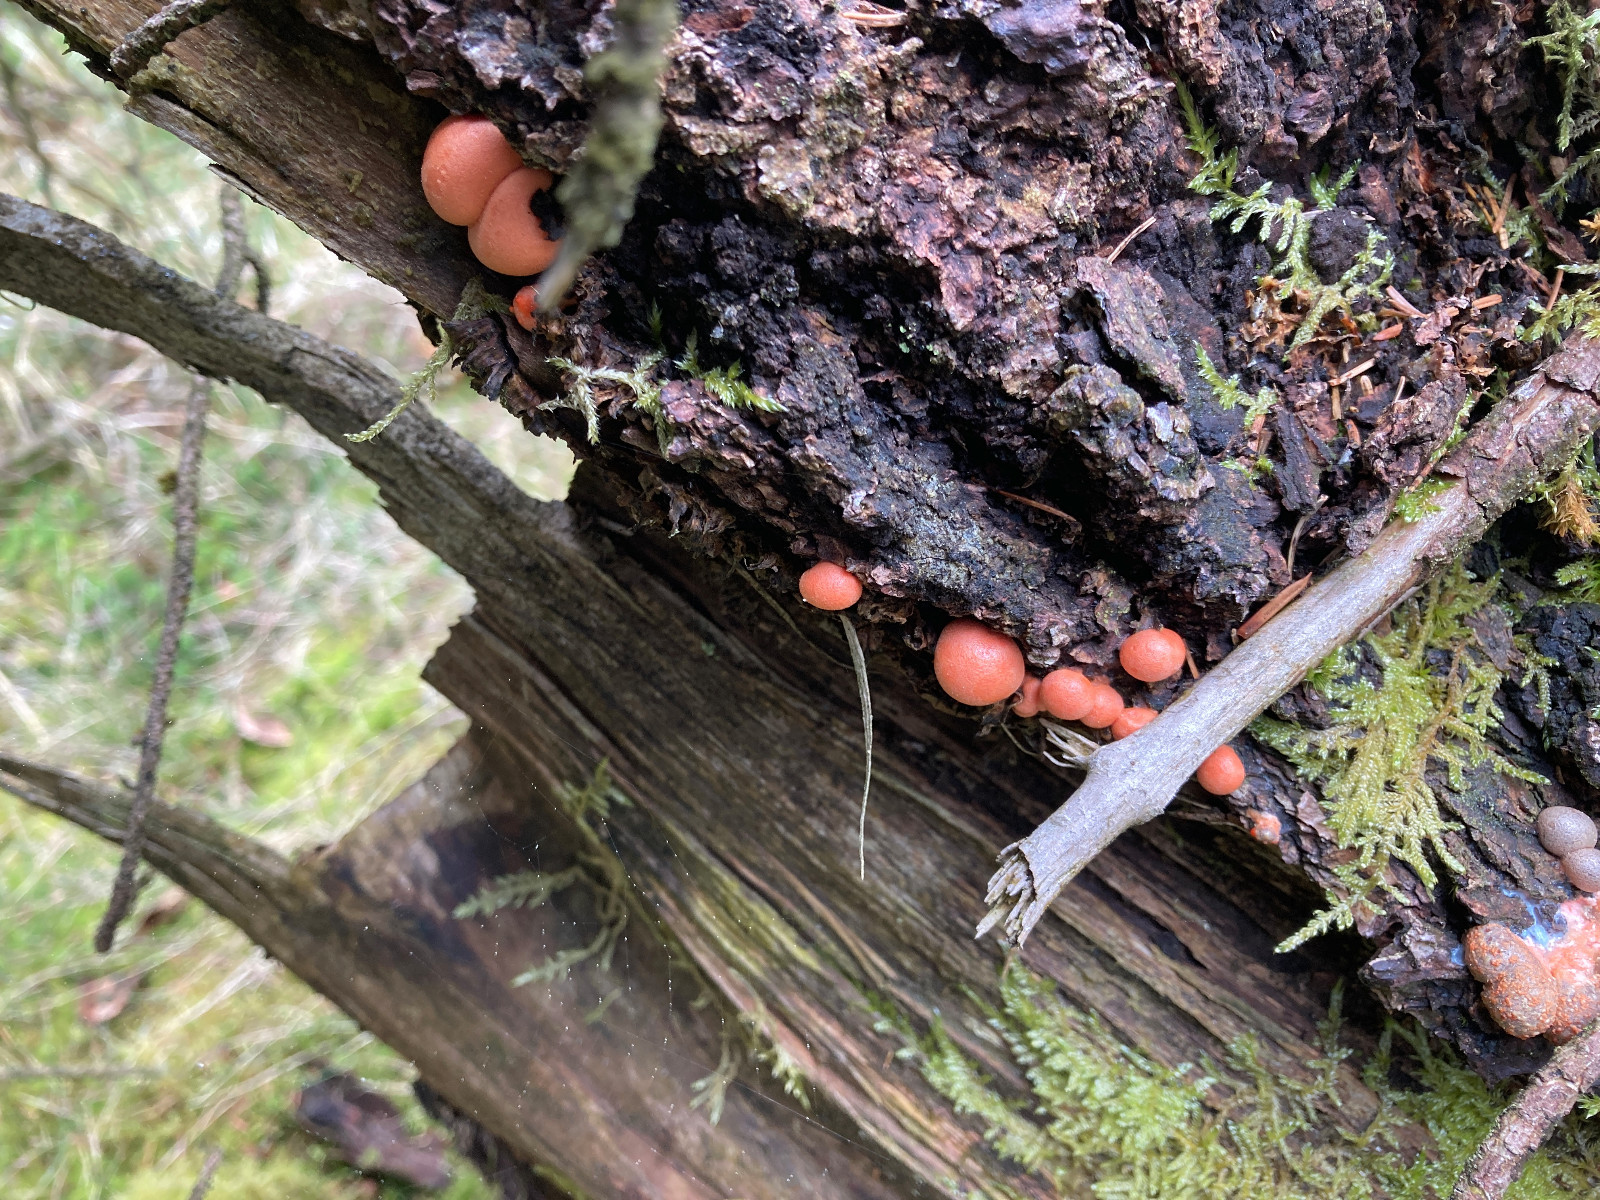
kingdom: Protozoa
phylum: Mycetozoa
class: Myxomycetes
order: Cribrariales
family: Tubiferaceae
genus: Lycogala
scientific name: Lycogala epidendrum
